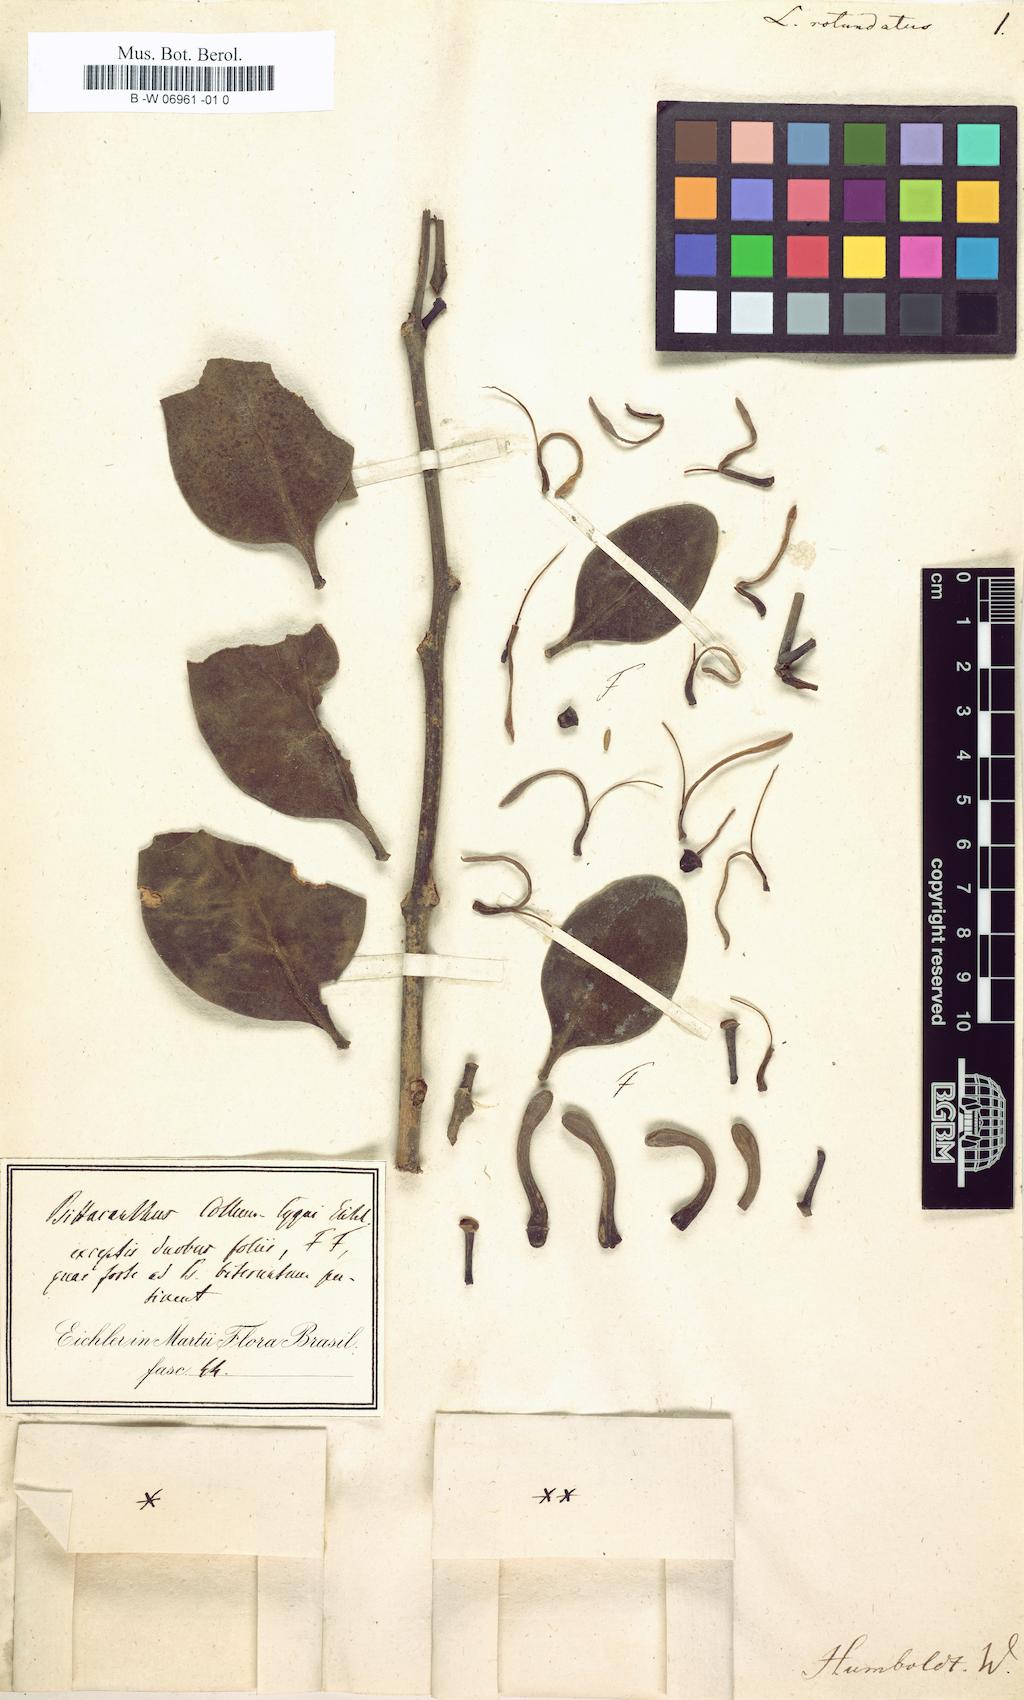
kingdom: Plantae
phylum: Tracheophyta
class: Magnoliopsida
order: Santalales
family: Loranthaceae
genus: Oryctanthus
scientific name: Oryctanthus alveolatus
